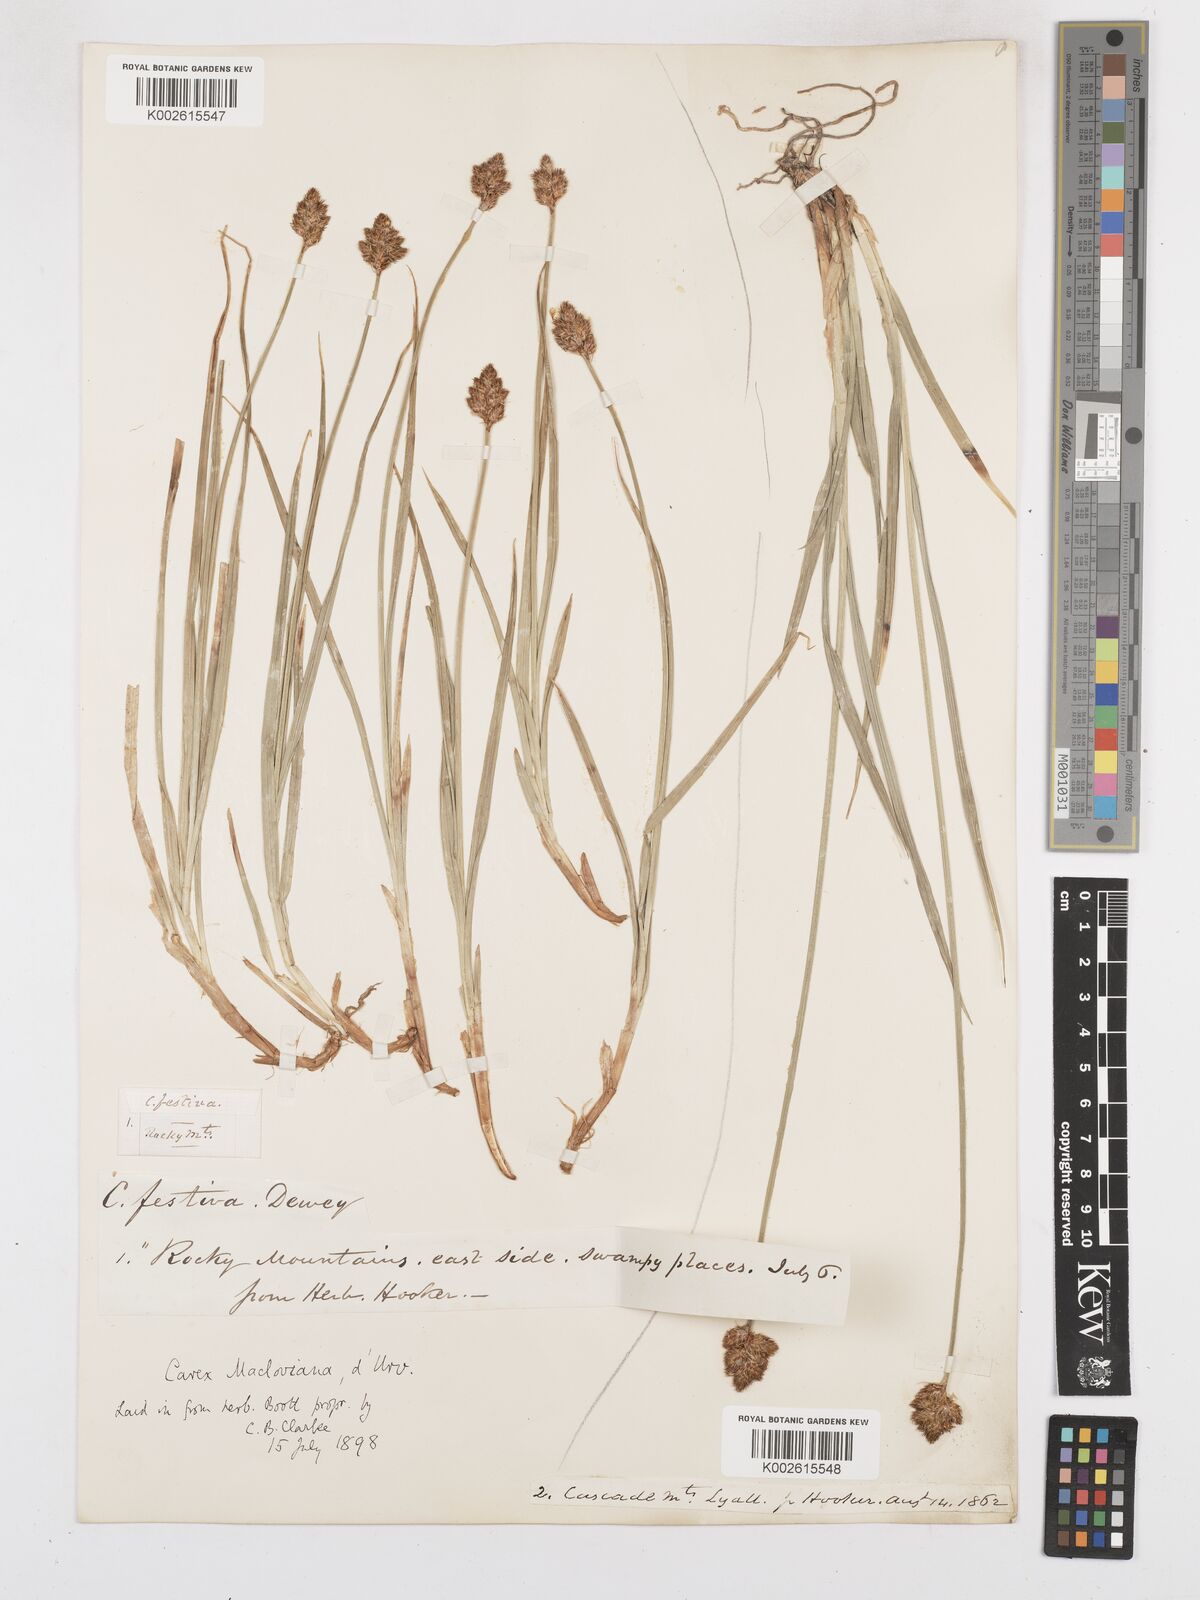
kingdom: Plantae
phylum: Tracheophyta
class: Liliopsida
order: Poales
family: Cyperaceae
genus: Carex
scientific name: Carex subfusca
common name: Brown sedge
